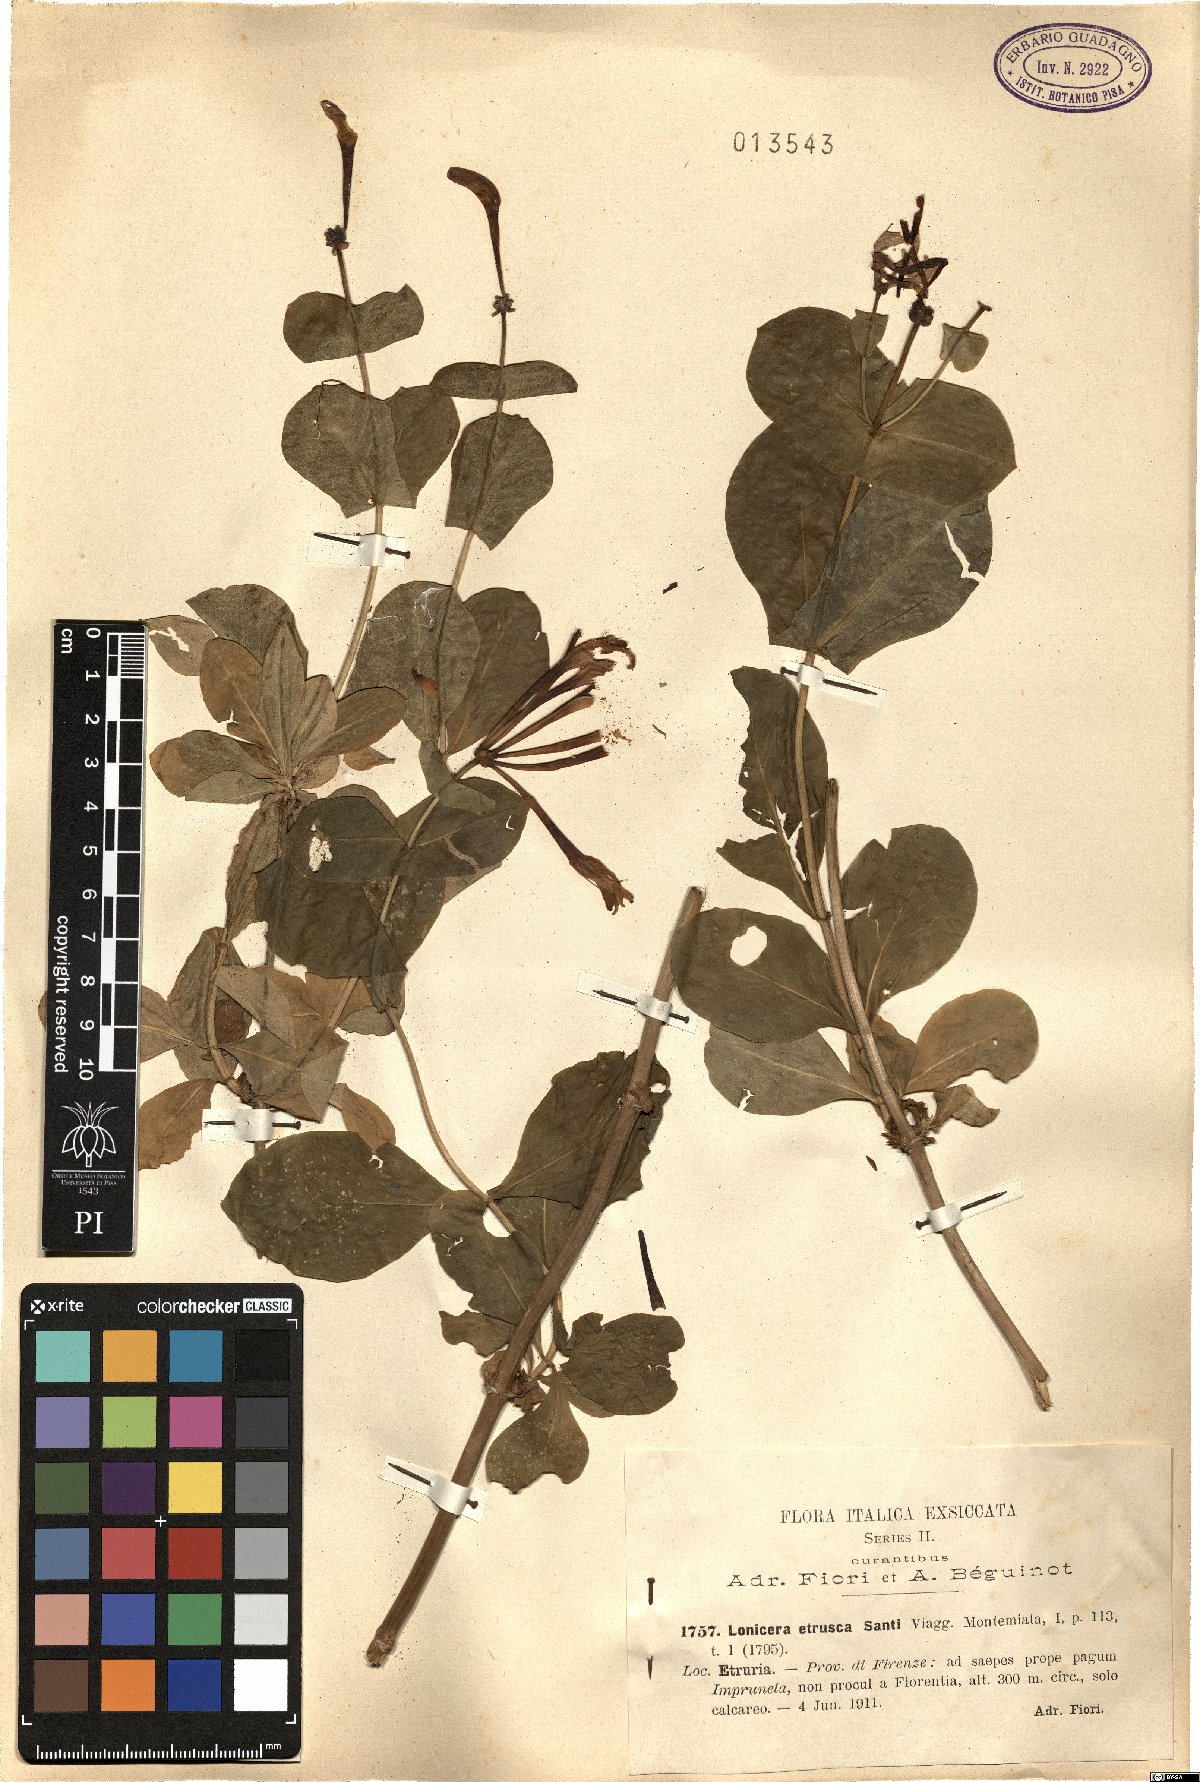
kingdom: Plantae
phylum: Tracheophyta
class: Magnoliopsida
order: Dipsacales
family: Caprifoliaceae
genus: Lonicera
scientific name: Lonicera etrusca
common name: Etruscan honeysuckle
